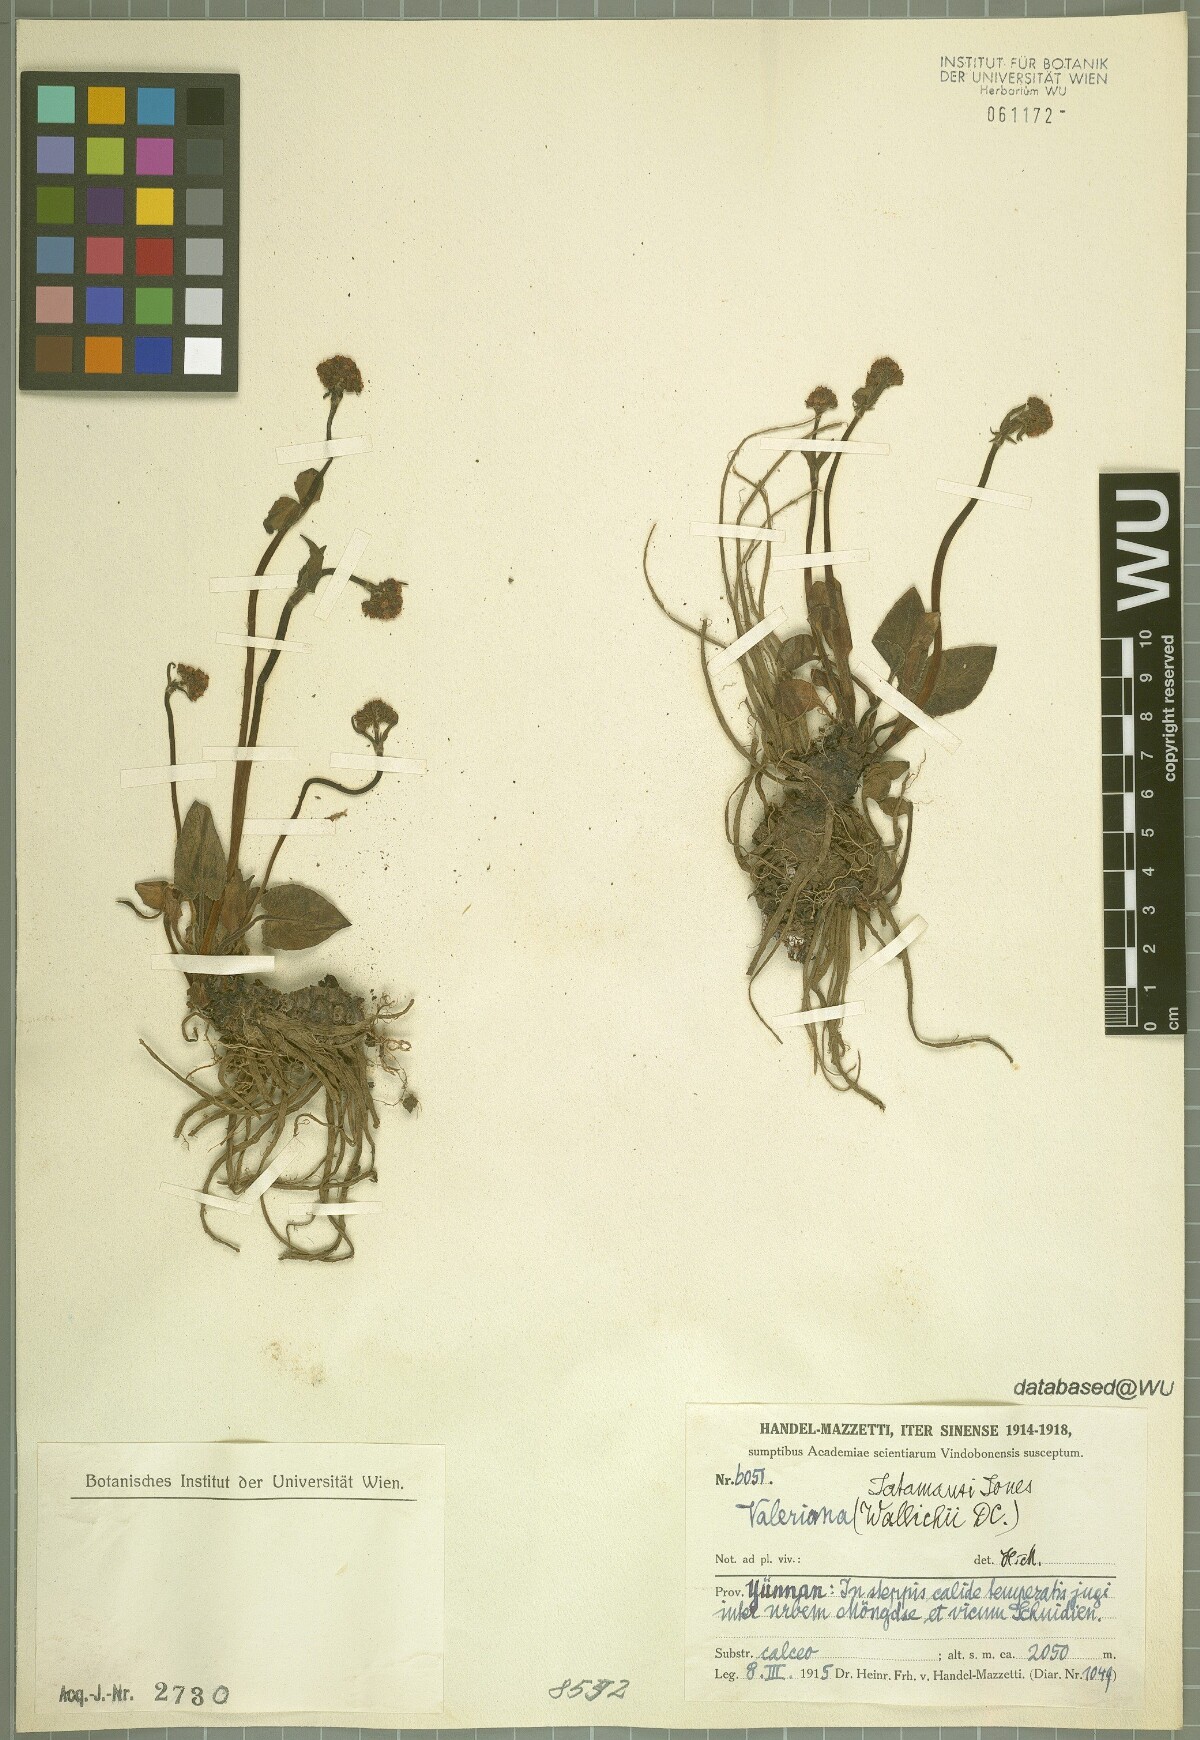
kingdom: Plantae
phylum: Tracheophyta
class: Magnoliopsida
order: Dipsacales
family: Caprifoliaceae
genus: Valeriana
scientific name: Valeriana jatamansi
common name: Indian valerian
